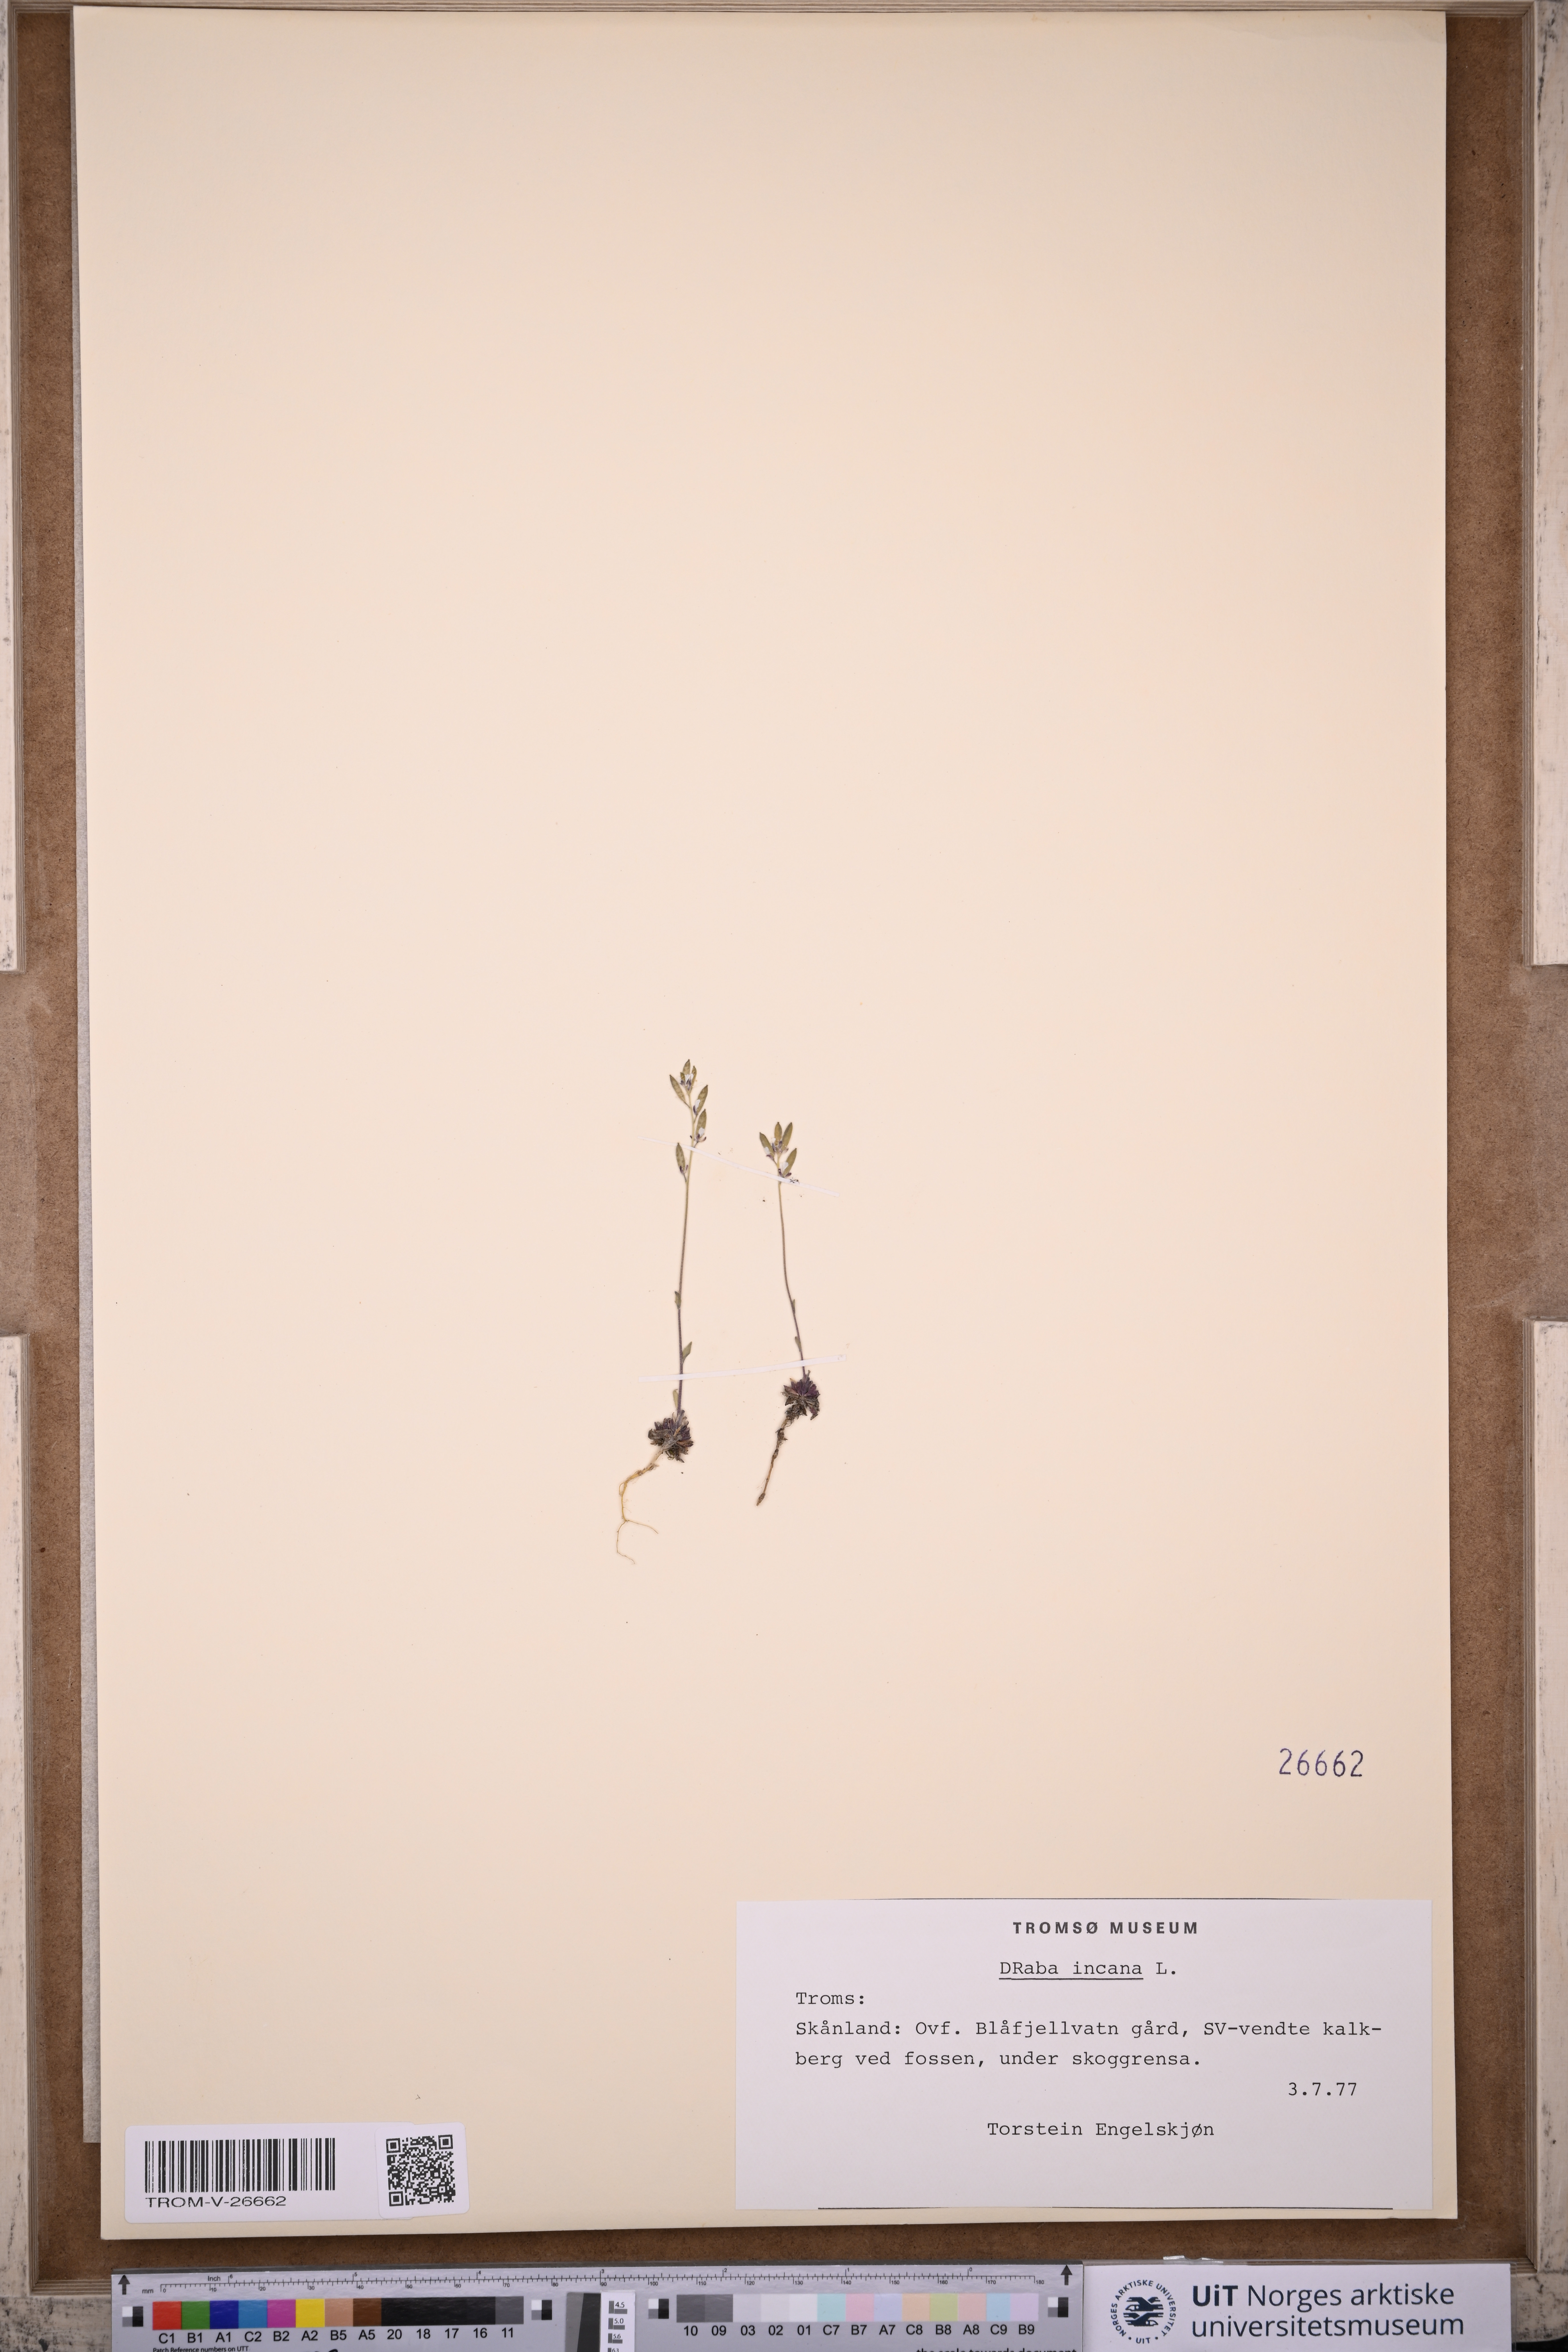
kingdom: Plantae
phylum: Tracheophyta
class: Magnoliopsida
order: Brassicales
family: Brassicaceae
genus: Draba
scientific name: Draba incana
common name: Hoary whitlow-grass
